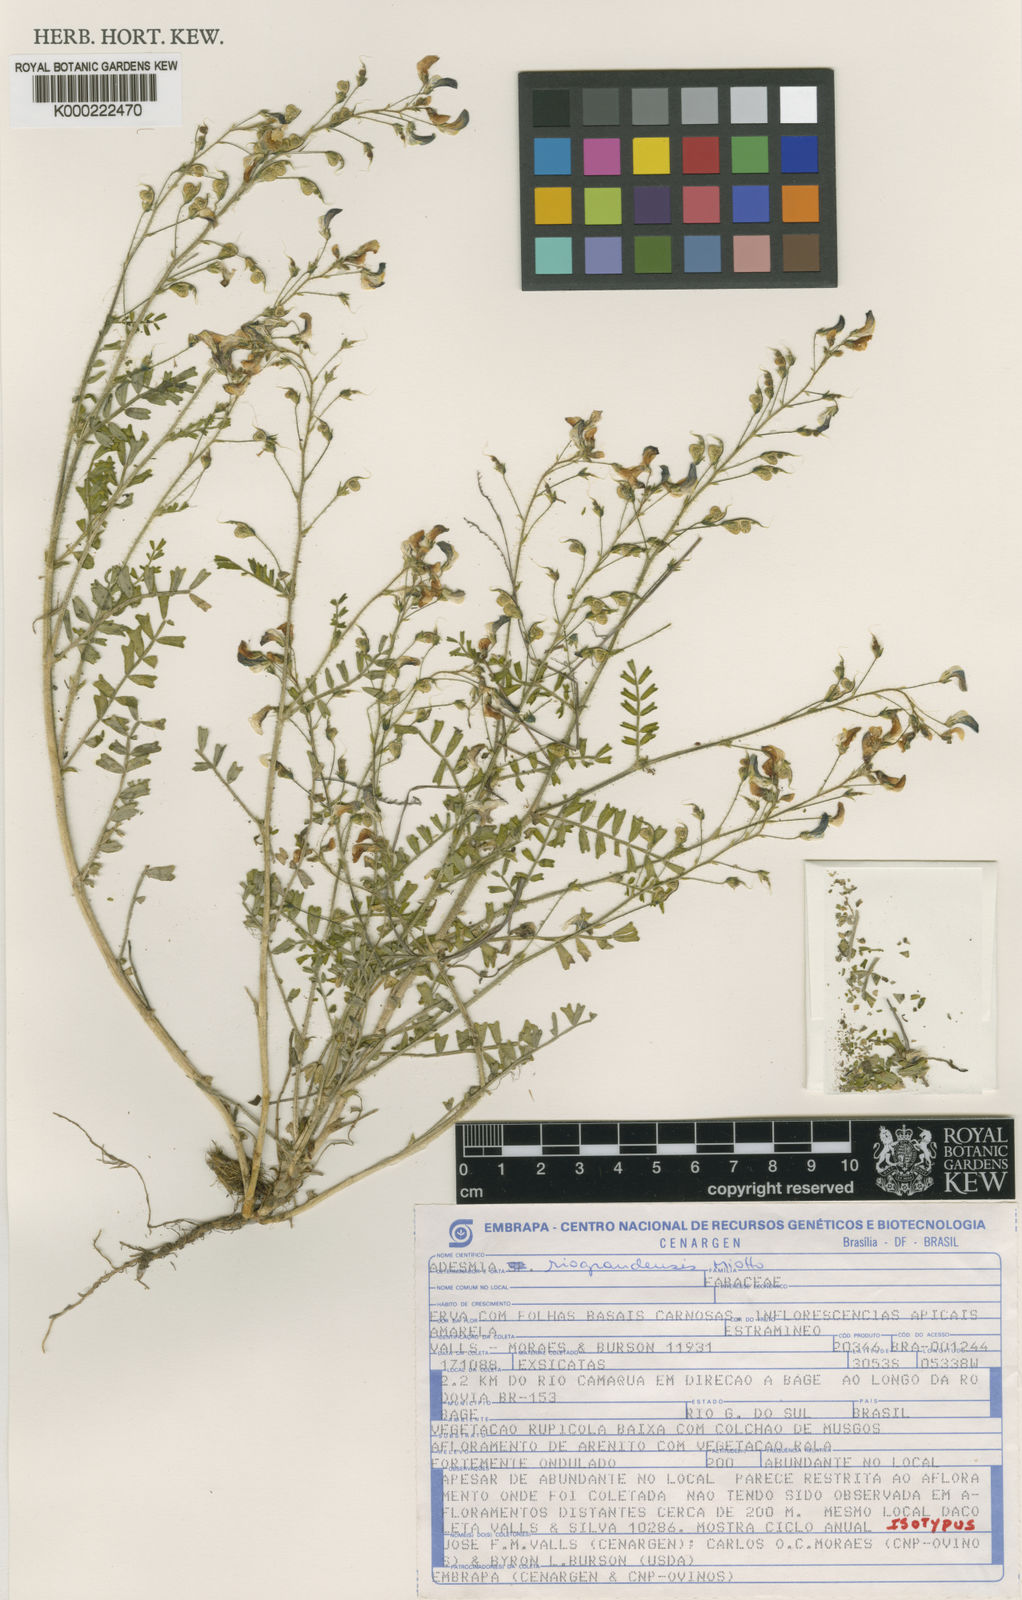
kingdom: Plantae
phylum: Tracheophyta
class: Magnoliopsida
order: Fabales
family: Fabaceae
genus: Adesmia
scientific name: Adesmia riograndensis
